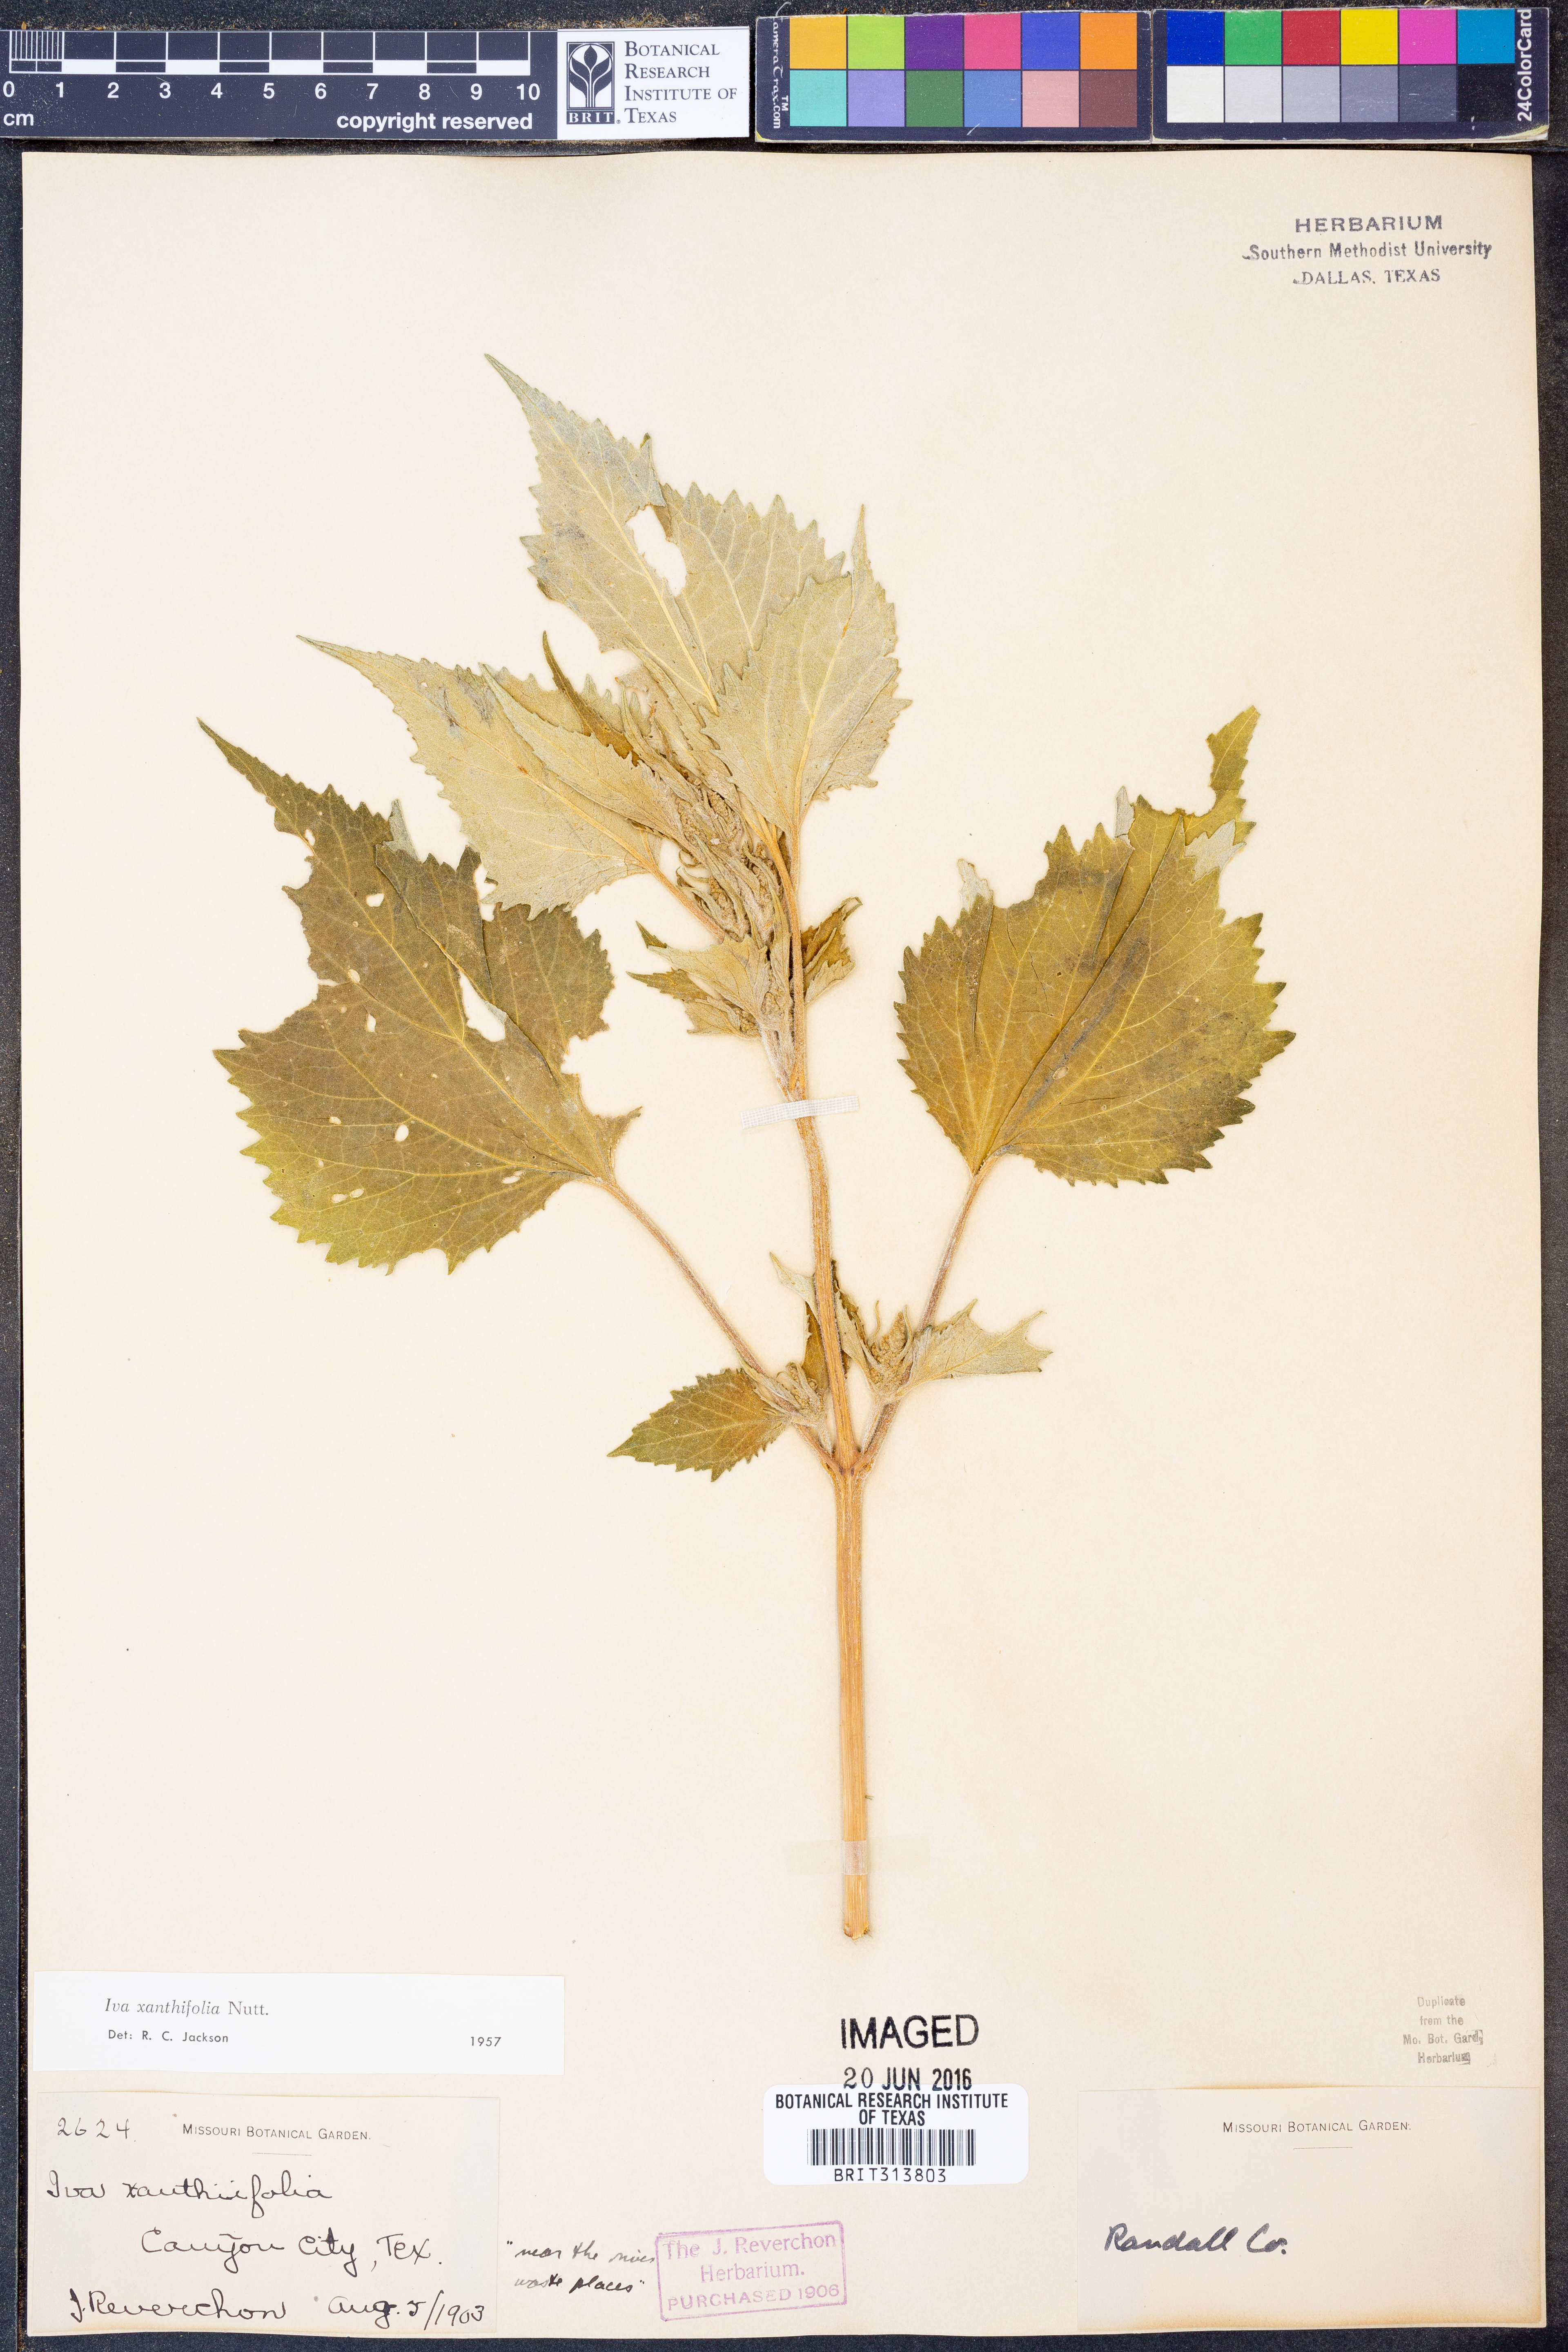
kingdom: Plantae
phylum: Tracheophyta
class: Magnoliopsida
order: Asterales
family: Asteraceae
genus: Cyclachaena
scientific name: Cyclachaena xanthiifolia
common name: Giant sumpweed
